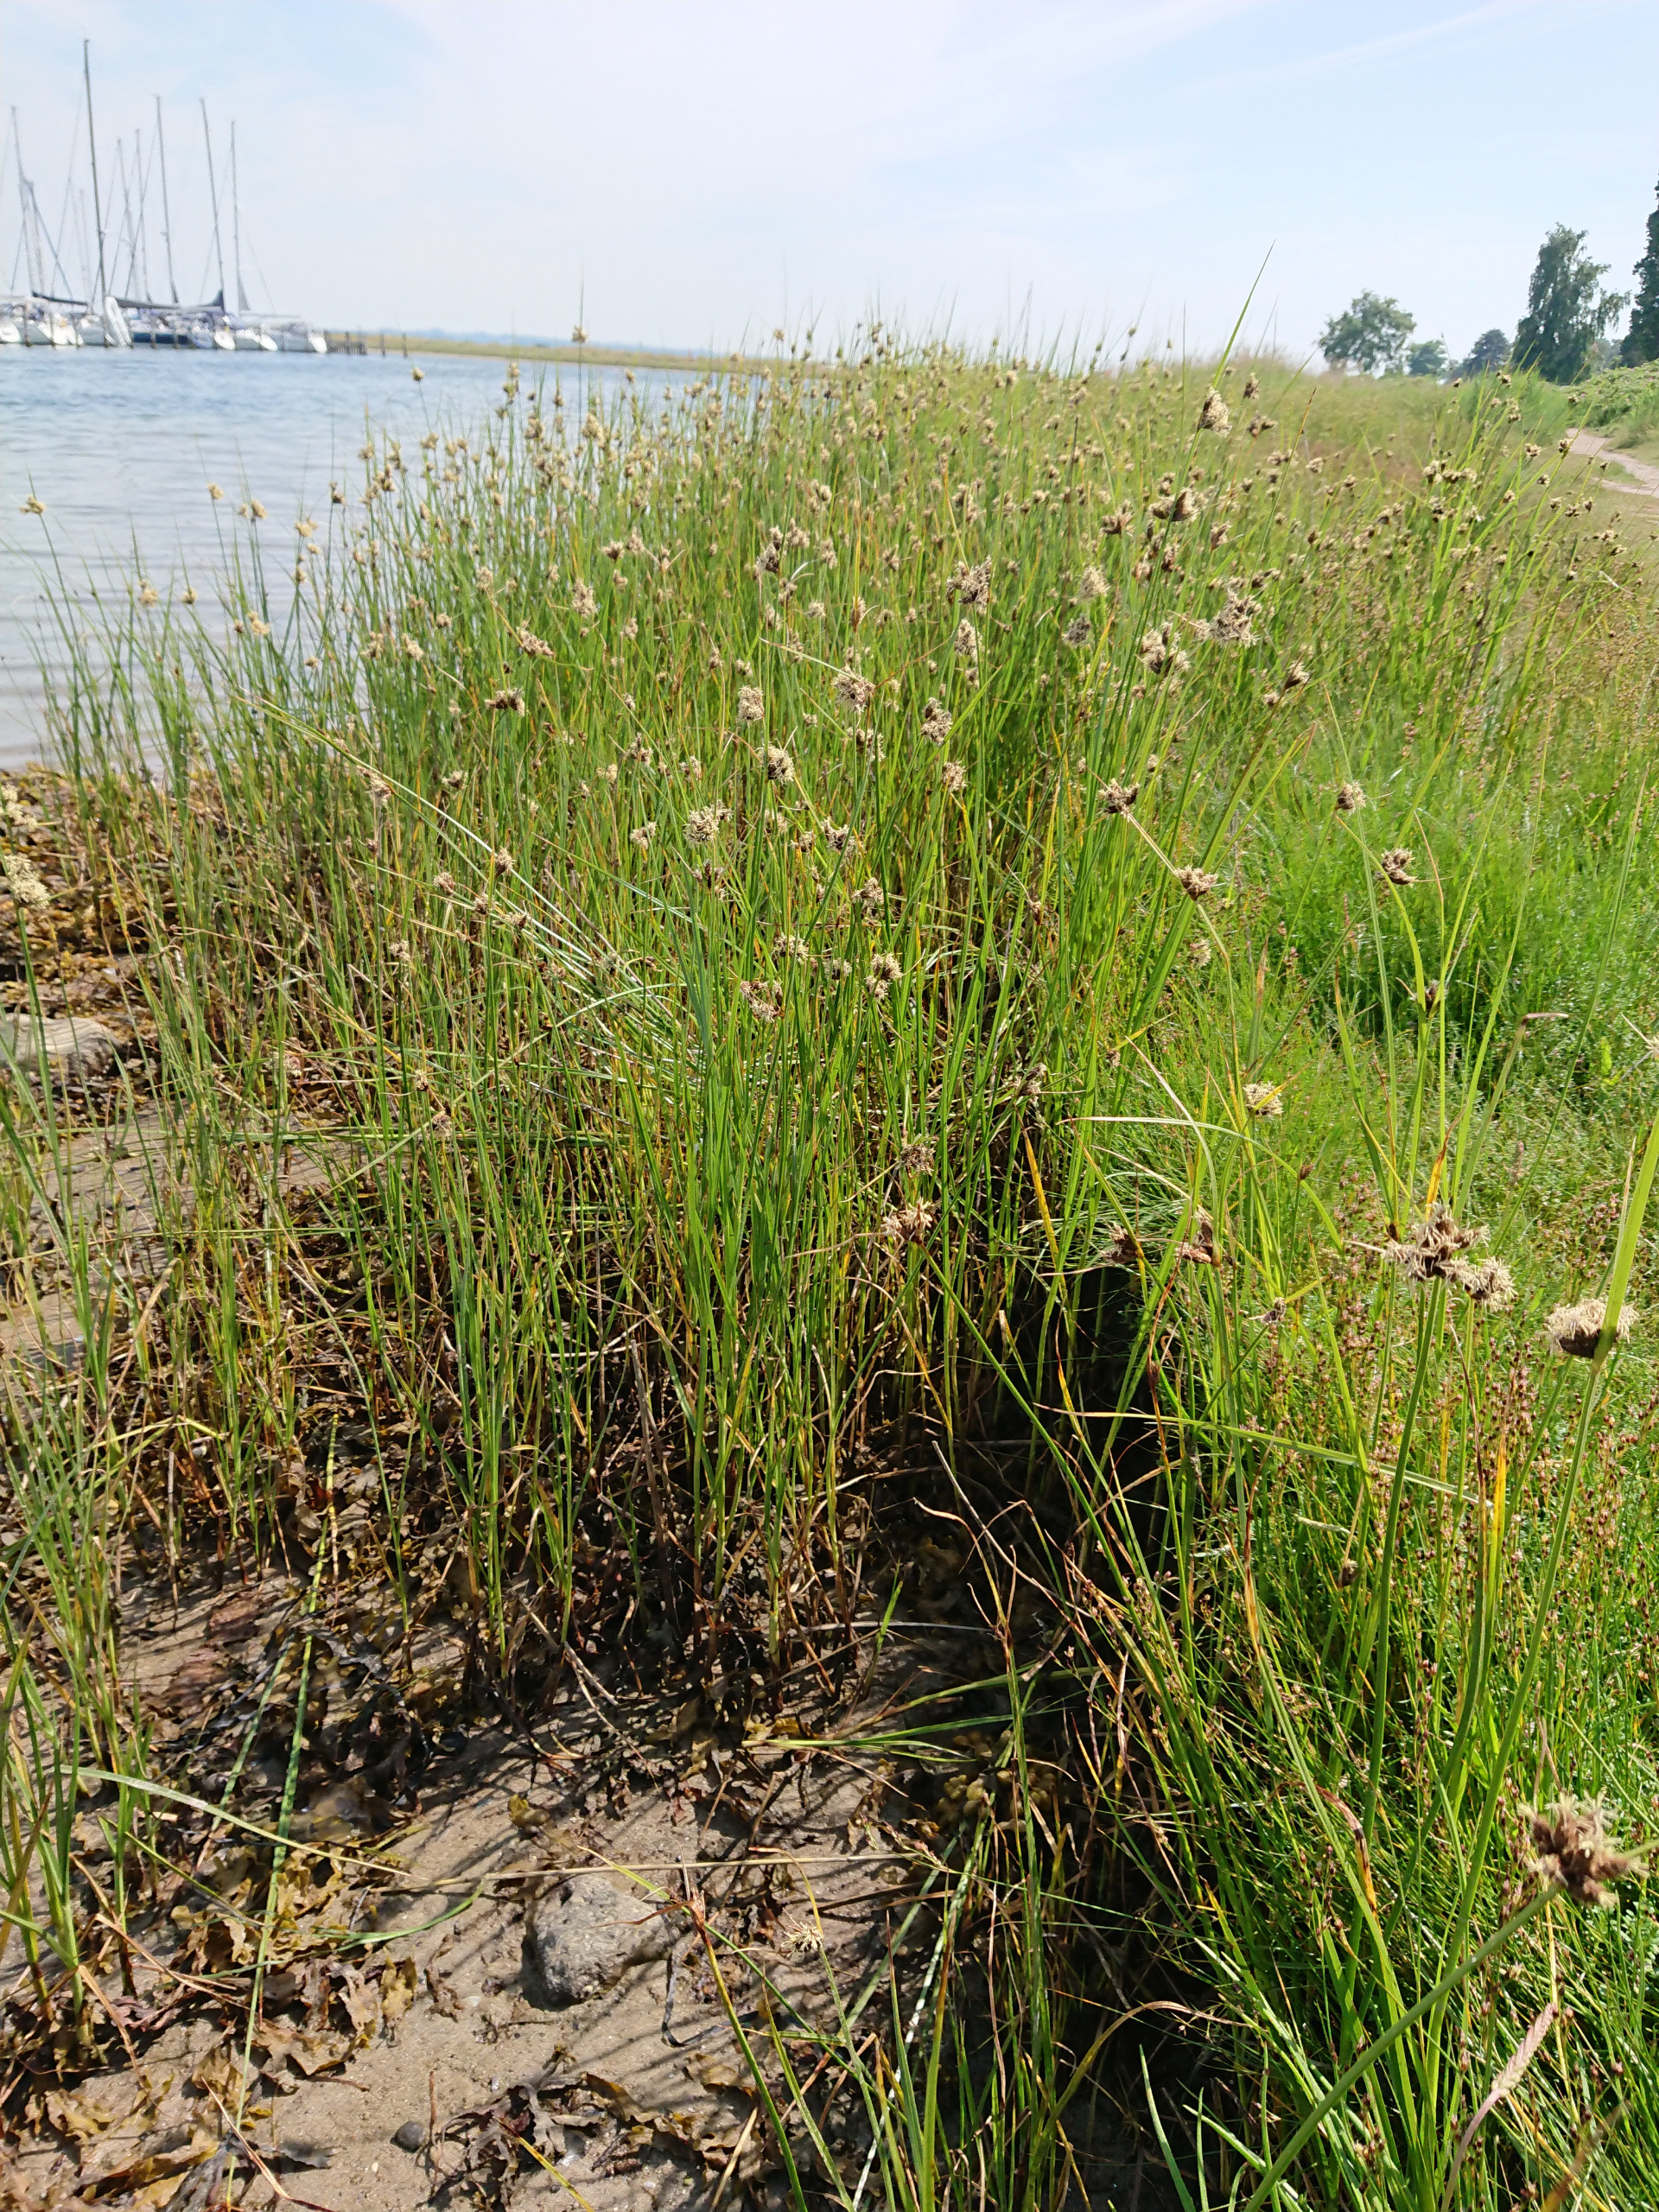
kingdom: Plantae
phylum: Tracheophyta
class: Liliopsida
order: Poales
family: Cyperaceae
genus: Bolboschoenus
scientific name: Bolboschoenus maritimus
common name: Strand-kogleaks
